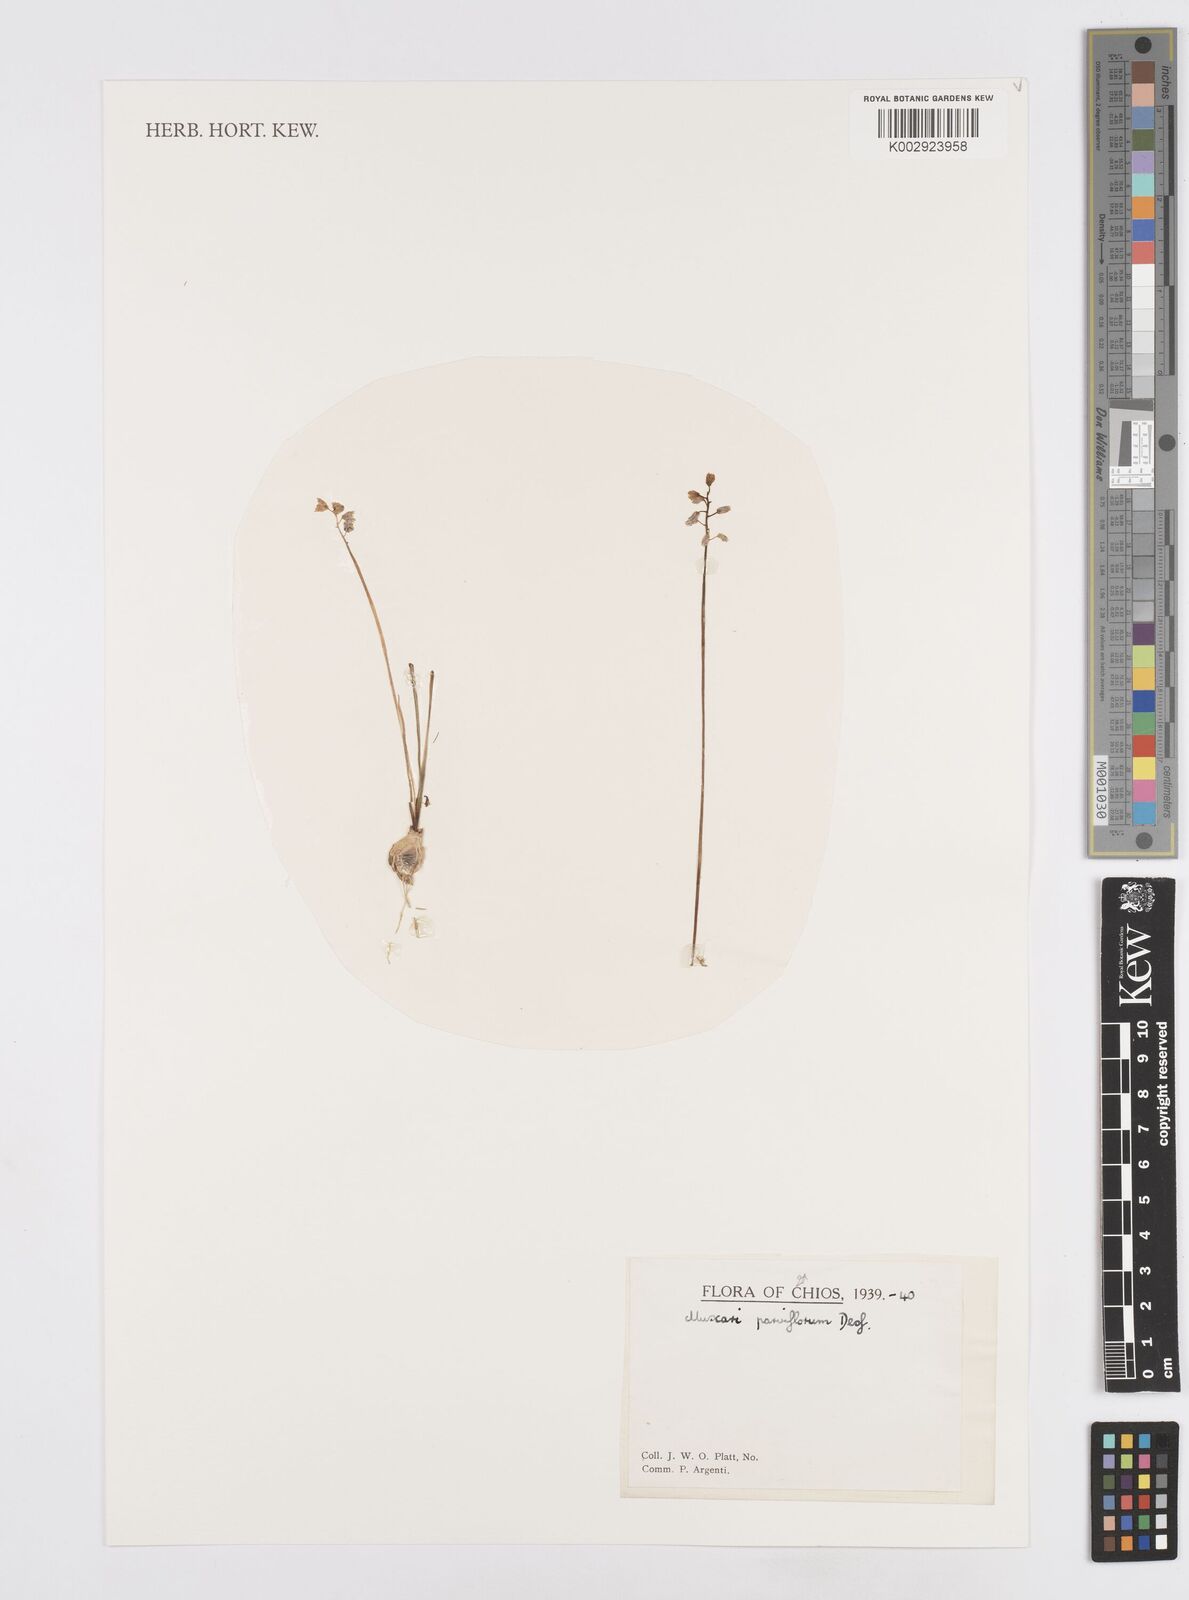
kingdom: Plantae
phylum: Tracheophyta
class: Liliopsida
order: Asparagales
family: Asparagaceae
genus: Muscari
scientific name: Muscari parviflorum
